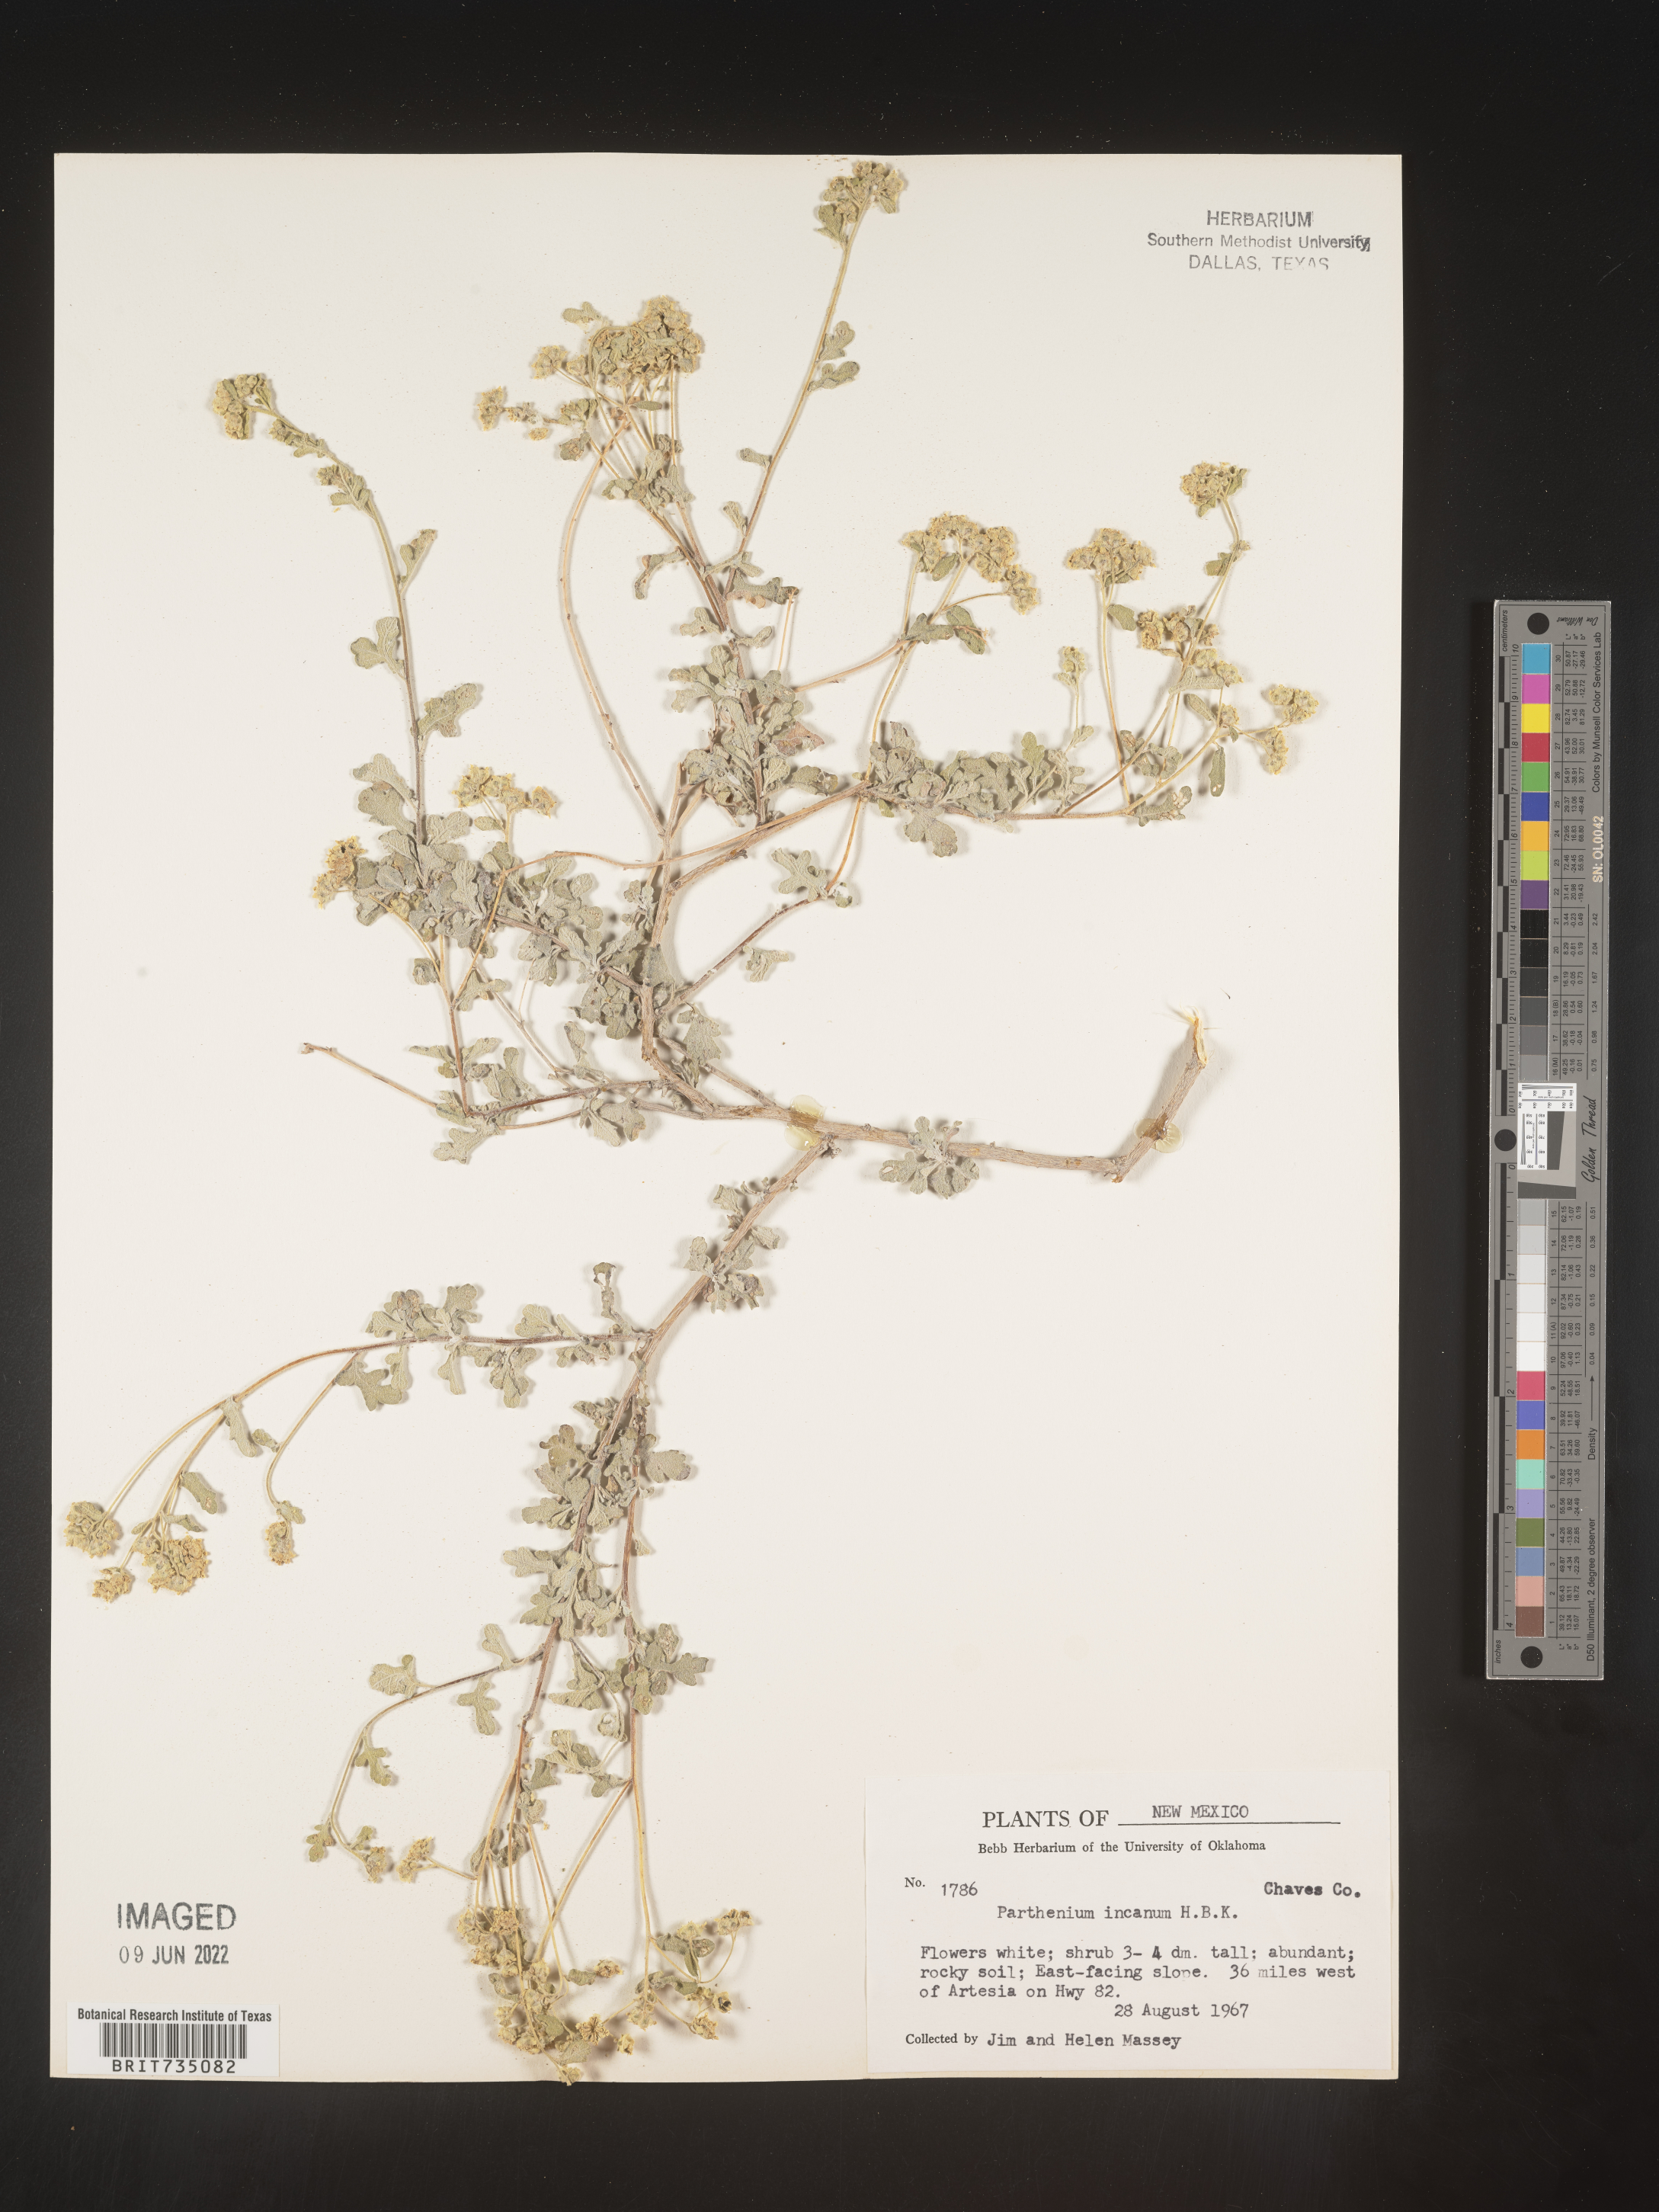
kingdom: Plantae
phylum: Tracheophyta
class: Magnoliopsida
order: Asterales
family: Asteraceae
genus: Parthenium
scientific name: Parthenium incanum
